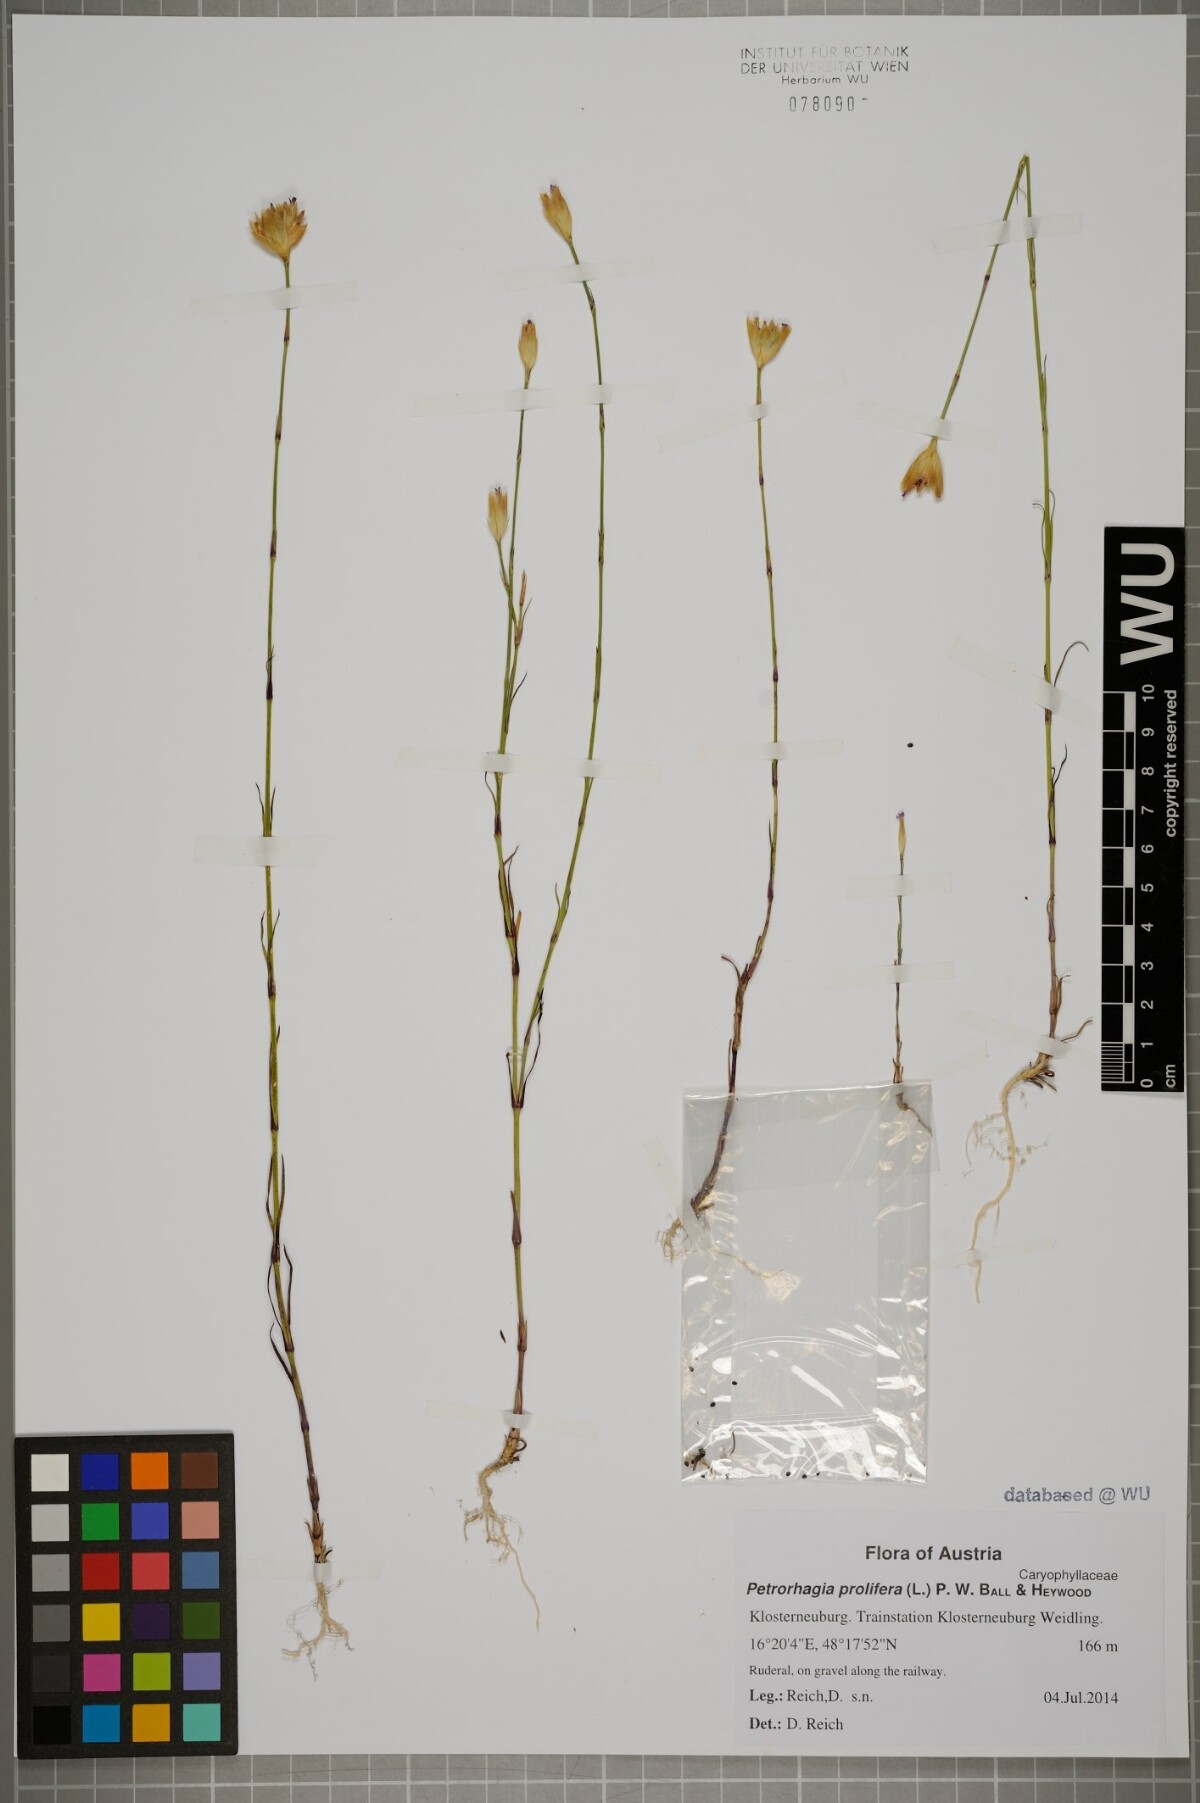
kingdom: Plantae
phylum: Tracheophyta
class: Magnoliopsida
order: Caryophyllales
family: Caryophyllaceae
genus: Petrorhagia
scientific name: Petrorhagia prolifera
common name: Proliferous pink
